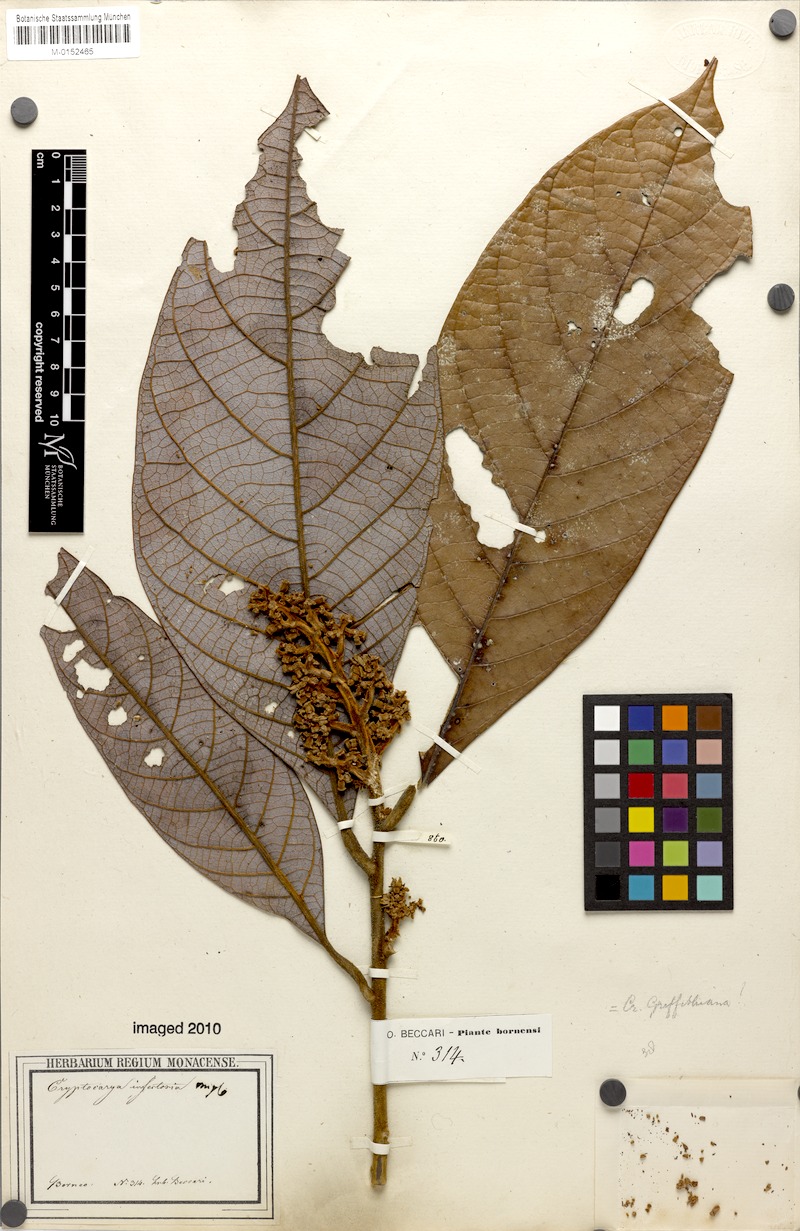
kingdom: Plantae
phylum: Tracheophyta
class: Magnoliopsida
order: Laurales
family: Lauraceae
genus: Cryptocarya
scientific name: Cryptocarya infectoria
